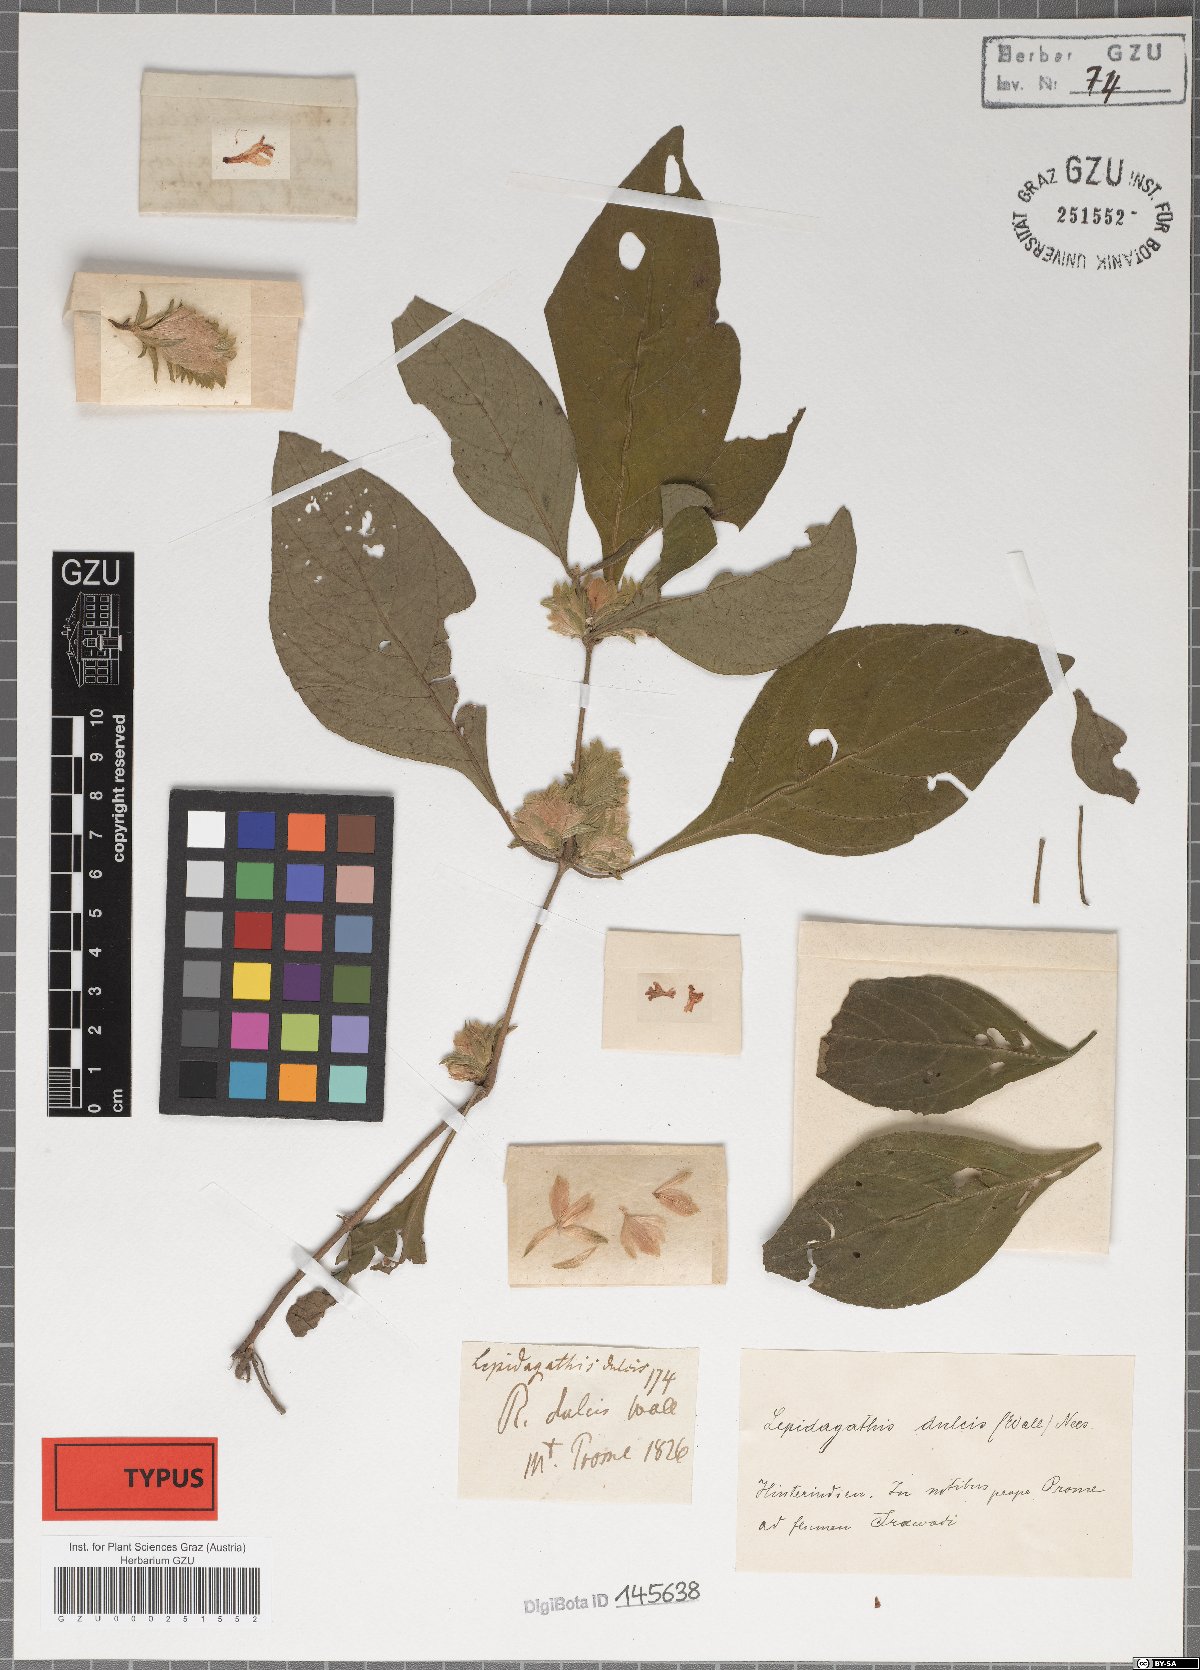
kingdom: Plantae
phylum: Tracheophyta
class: Magnoliopsida
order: Lamiales
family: Acanthaceae
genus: Lepidagathis
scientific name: Lepidagathis dulcis
